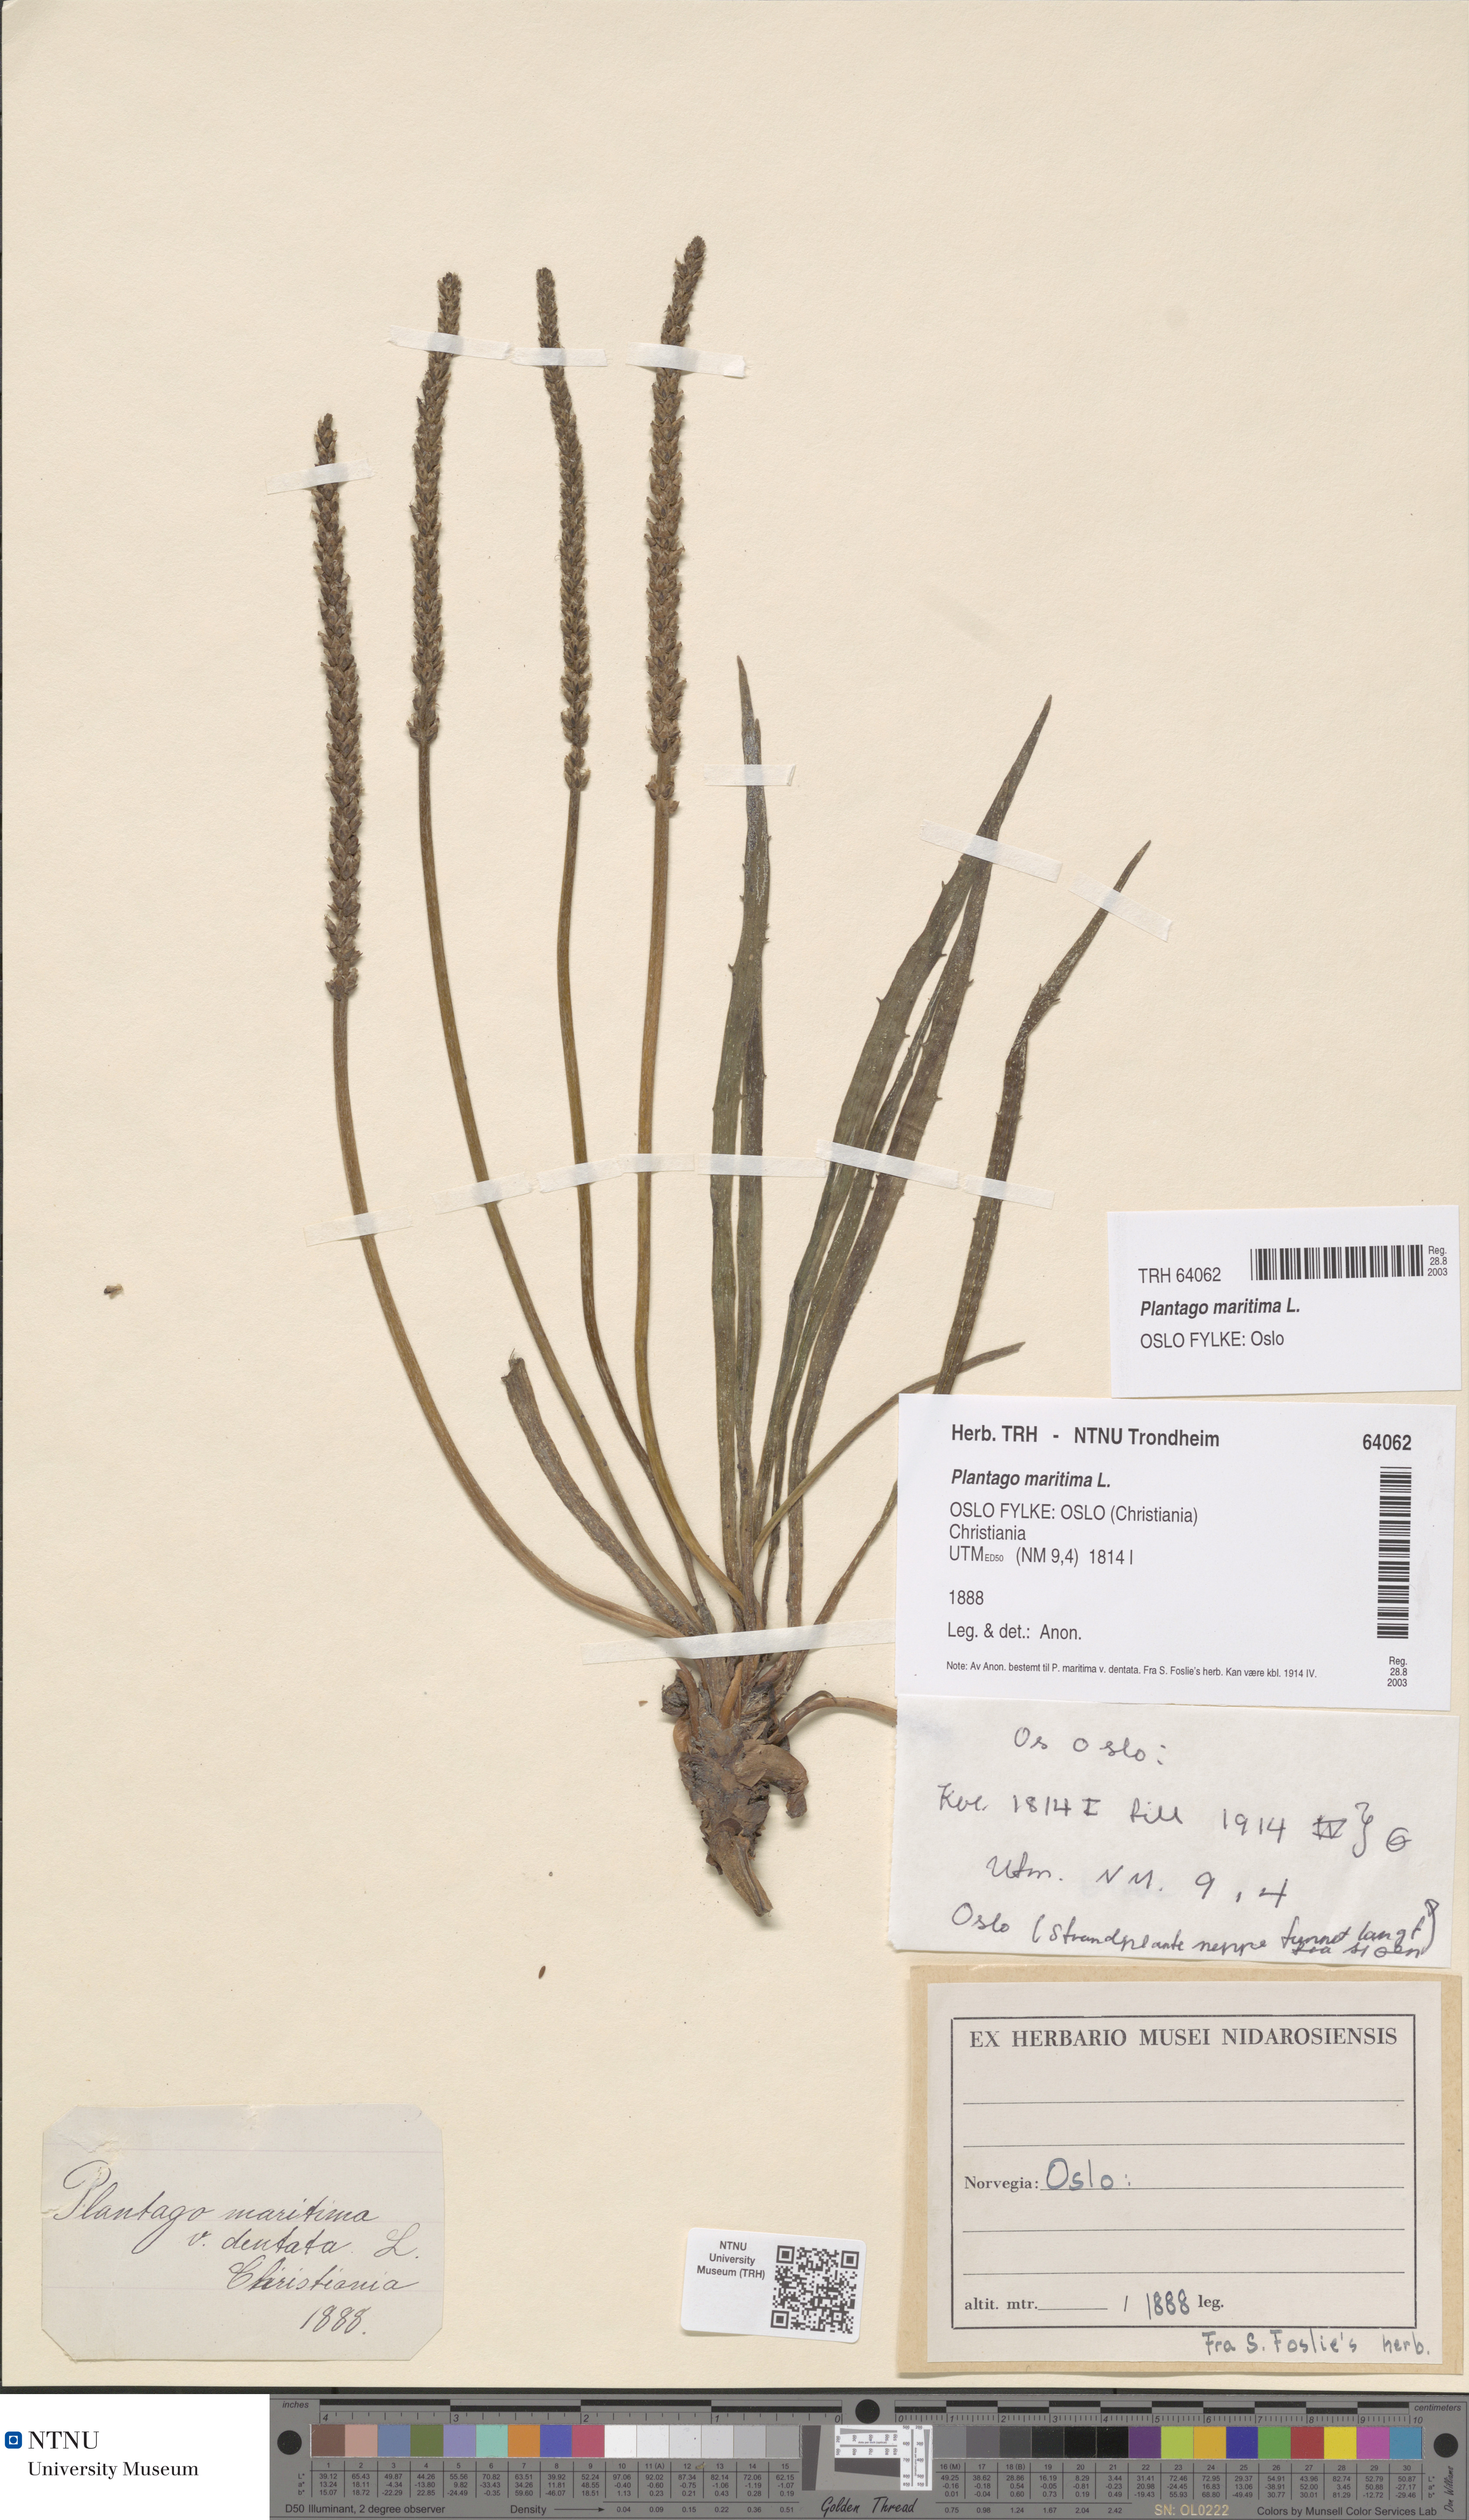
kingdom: Plantae
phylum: Tracheophyta
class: Magnoliopsida
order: Lamiales
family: Plantaginaceae
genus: Plantago
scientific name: Plantago maritima
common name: Sea plantain
